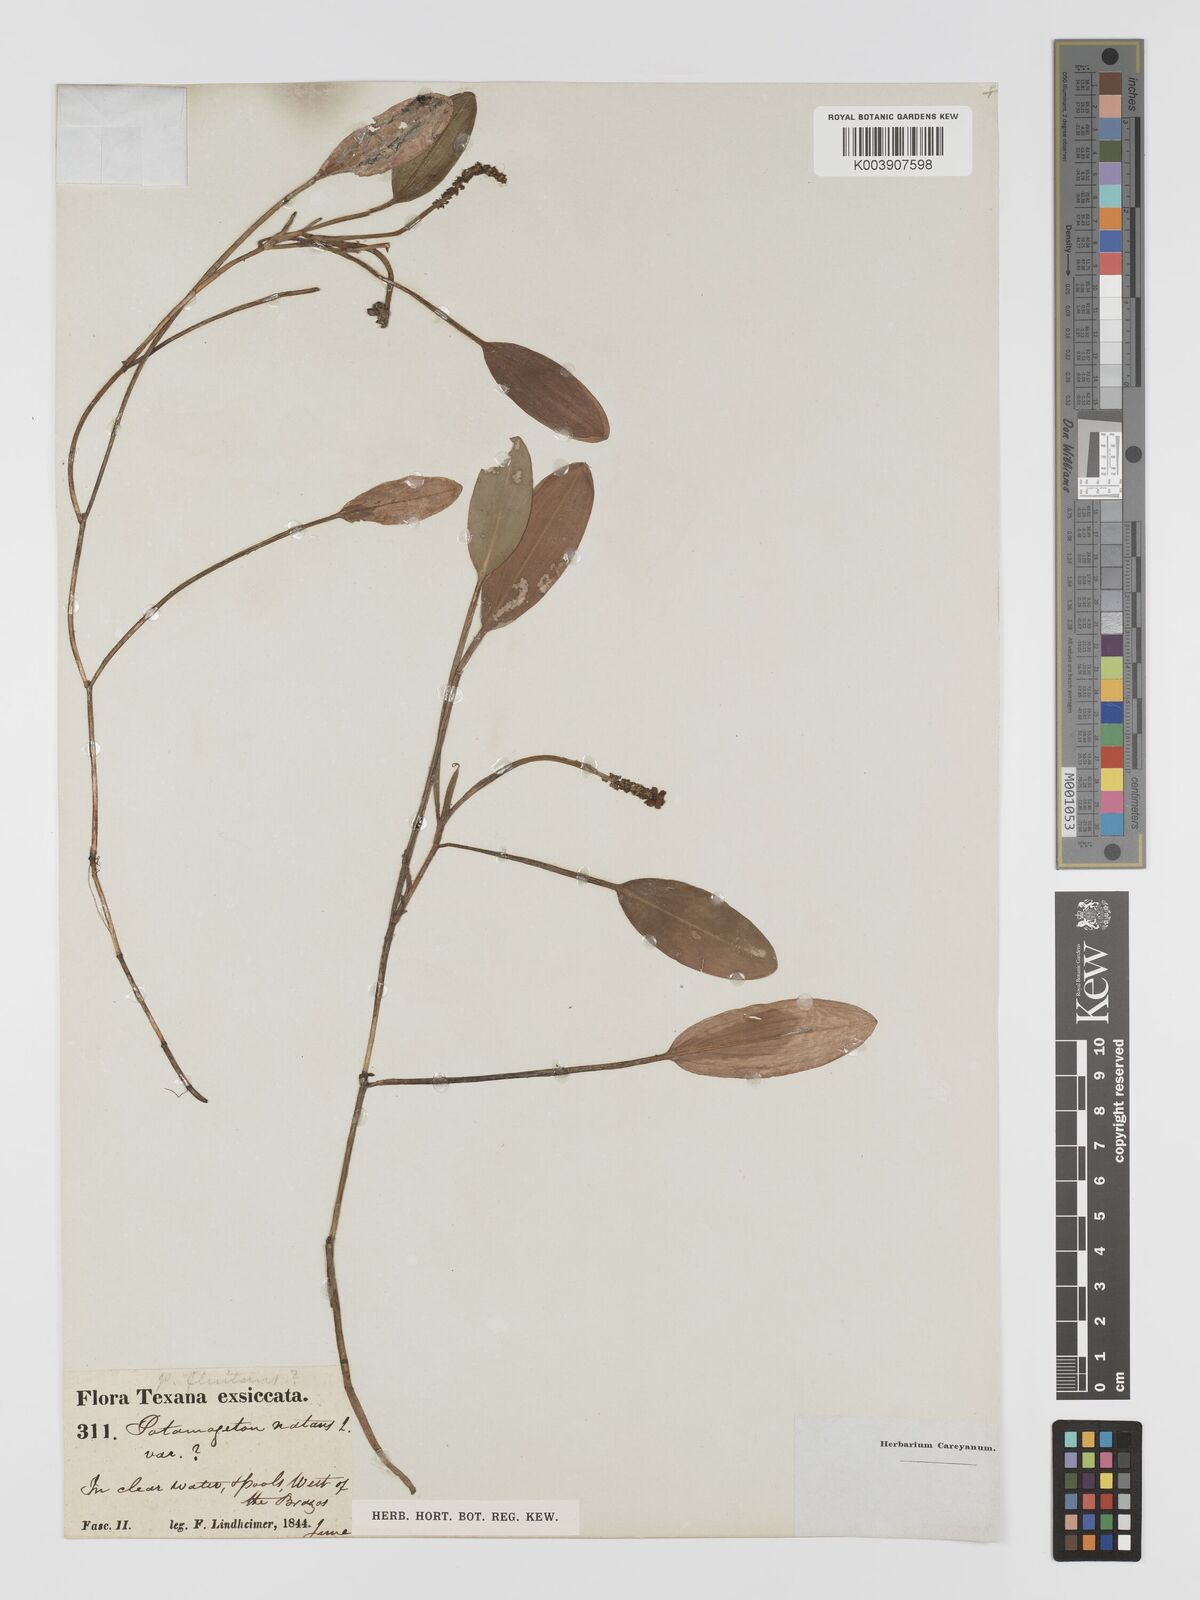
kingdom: Plantae
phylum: Tracheophyta
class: Liliopsida
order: Alismatales
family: Potamogetonaceae
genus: Potamogeton
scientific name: Potamogeton fluitans
